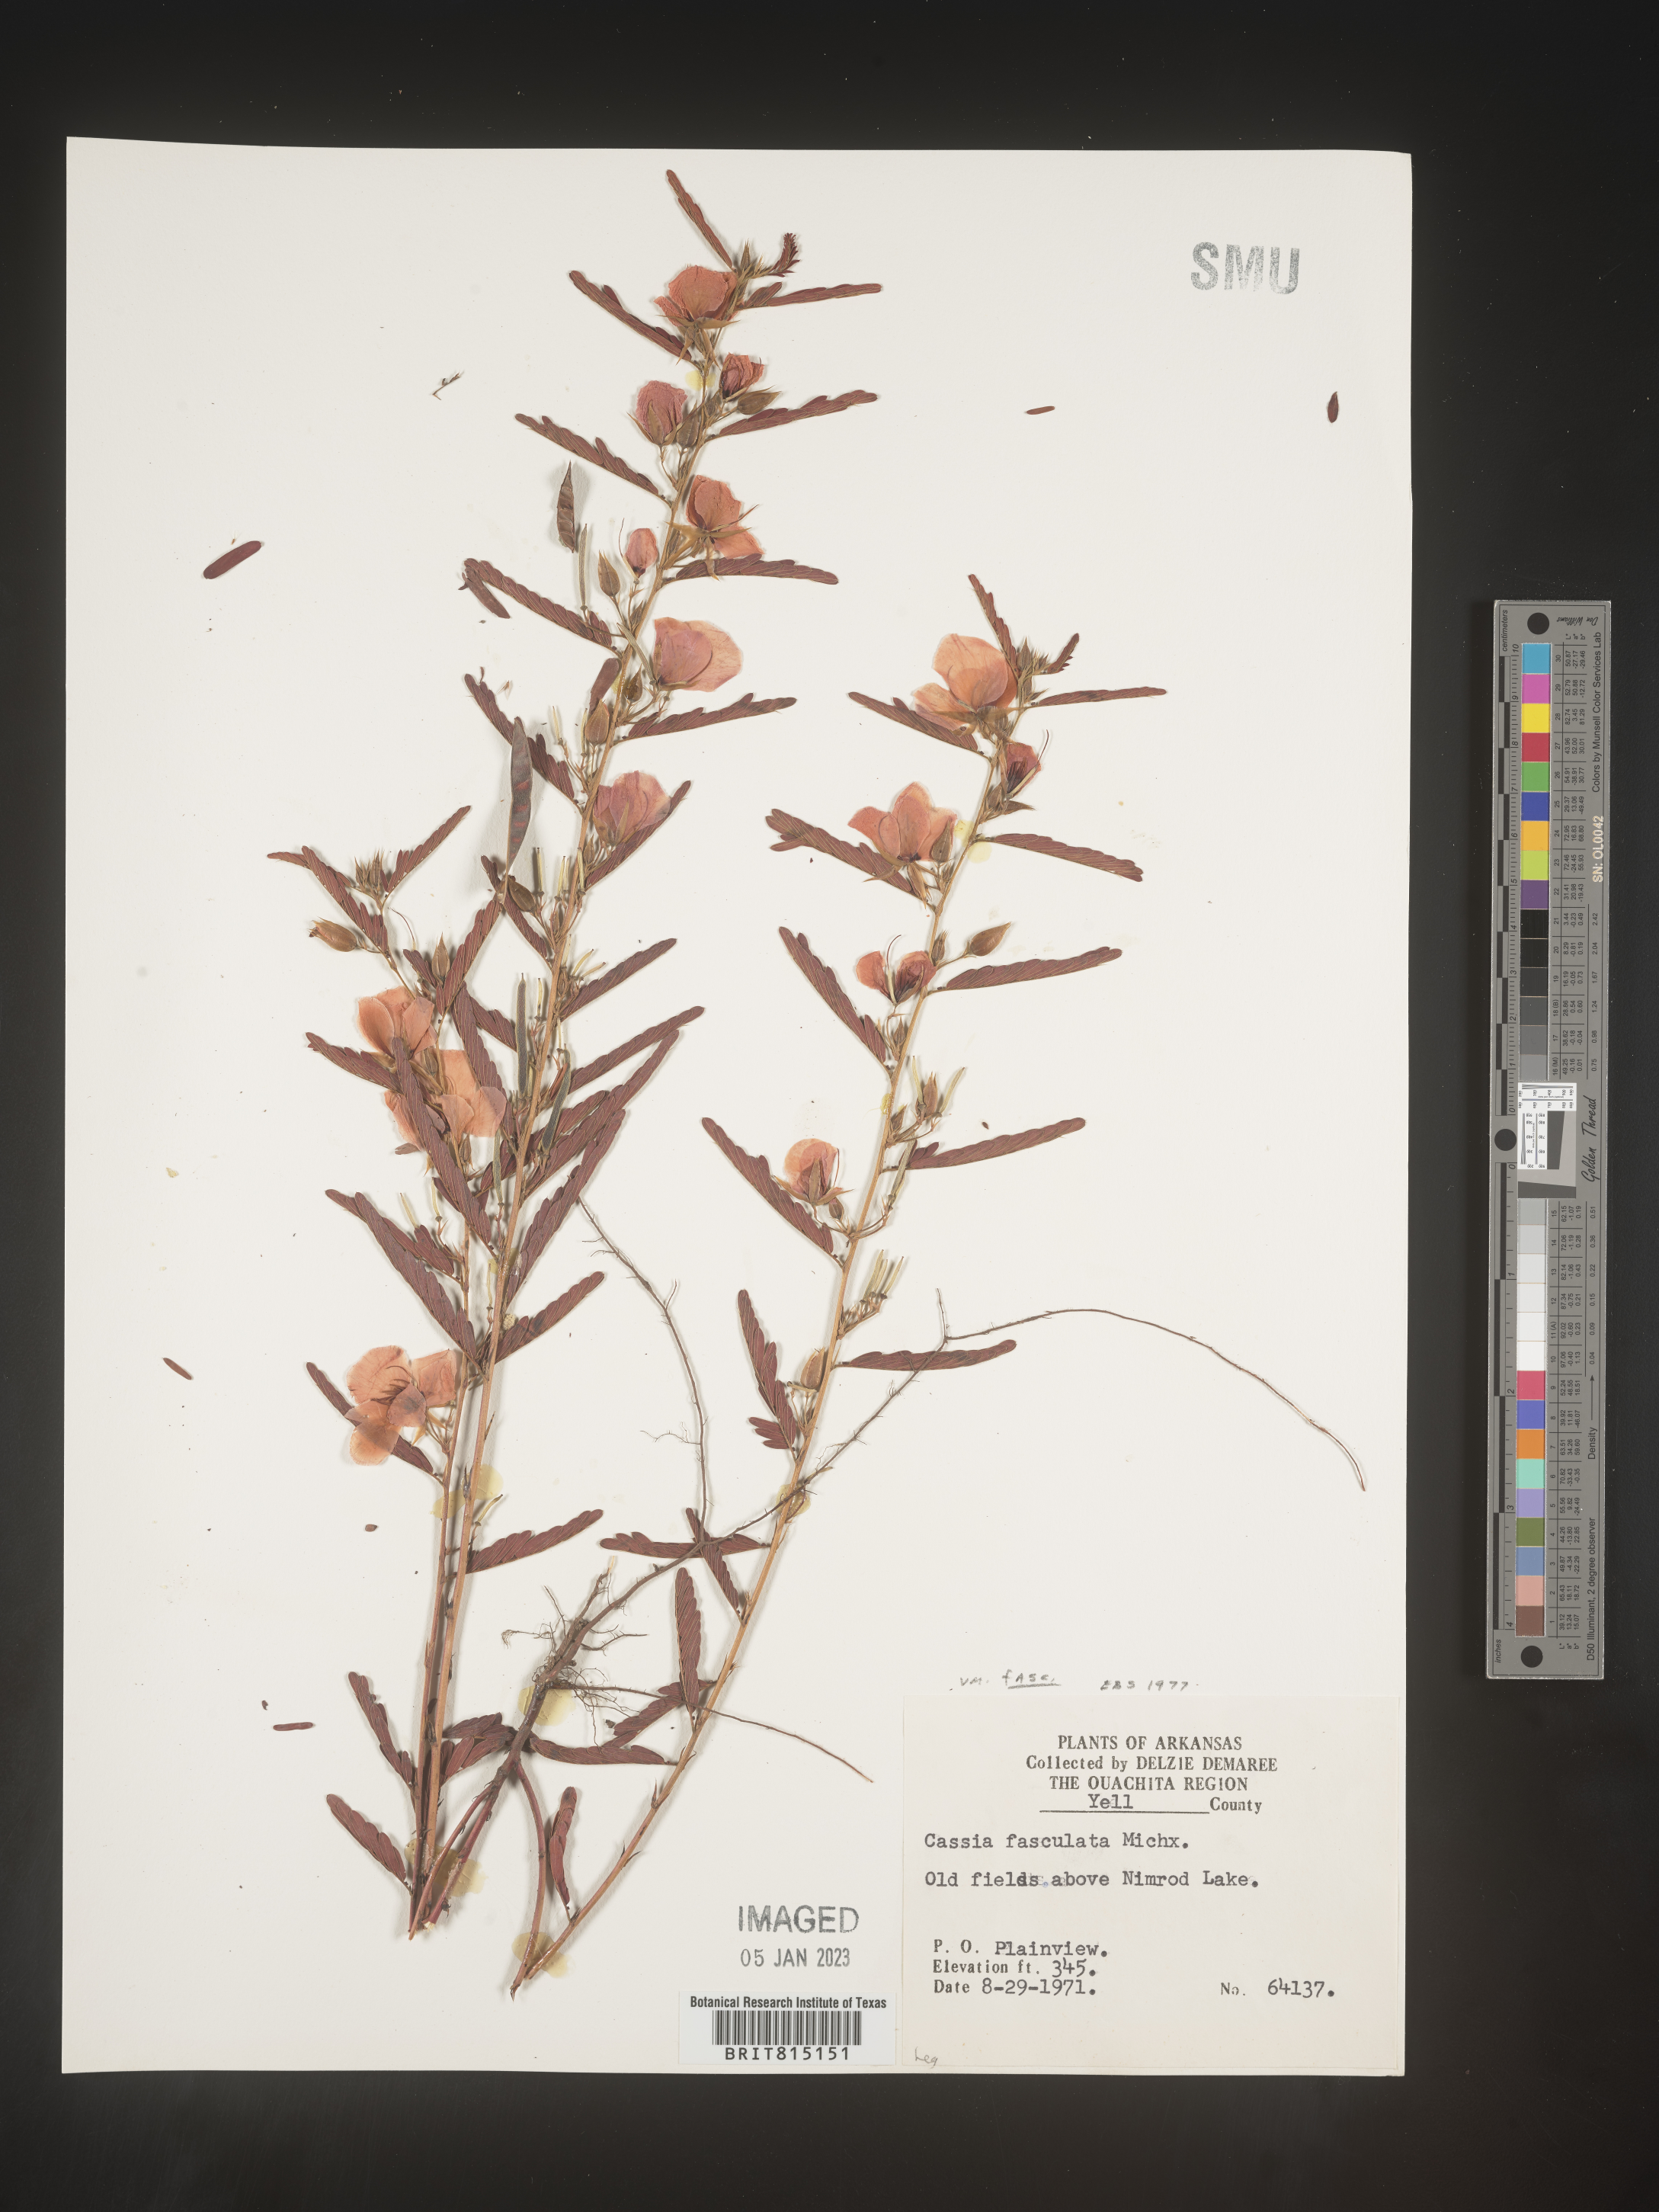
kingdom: Plantae
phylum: Tracheophyta
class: Magnoliopsida
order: Fabales
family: Fabaceae
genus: Chamaecrista
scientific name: Chamaecrista fasciculata
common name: Golden cassia
